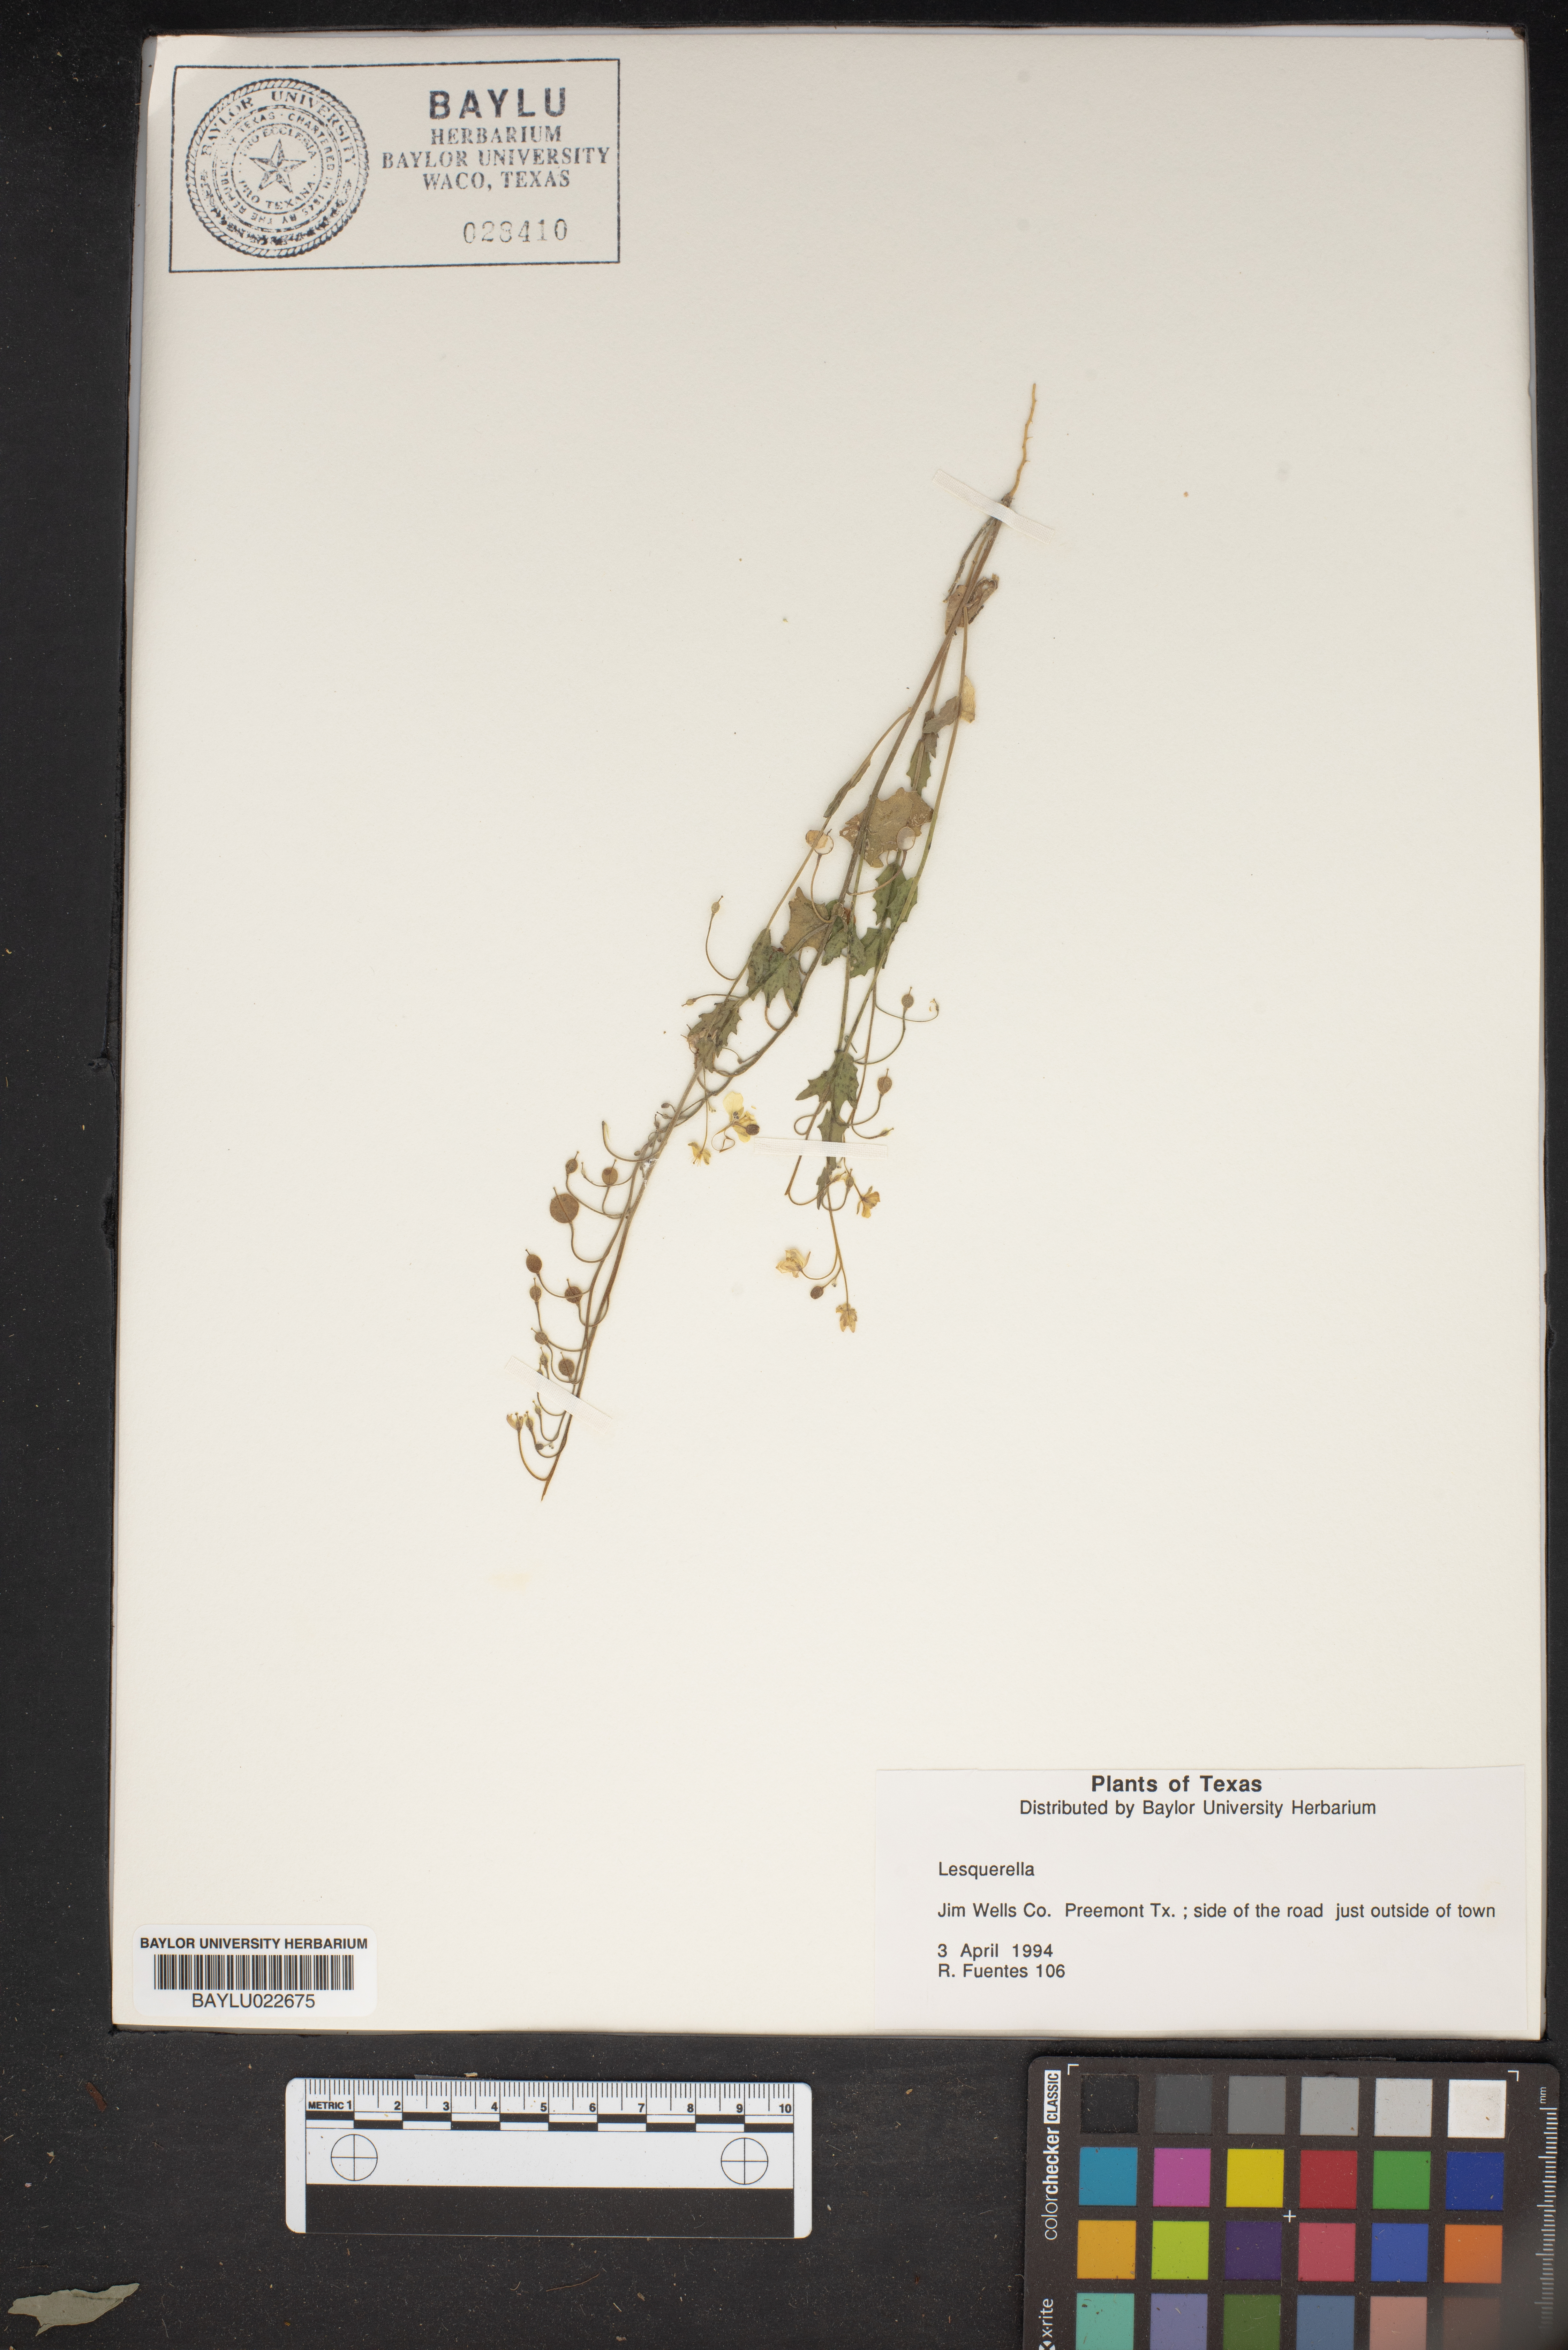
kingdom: Chromista
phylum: Cercozoa
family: Psammonobiotidae
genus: Lesquerella
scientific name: Lesquerella
